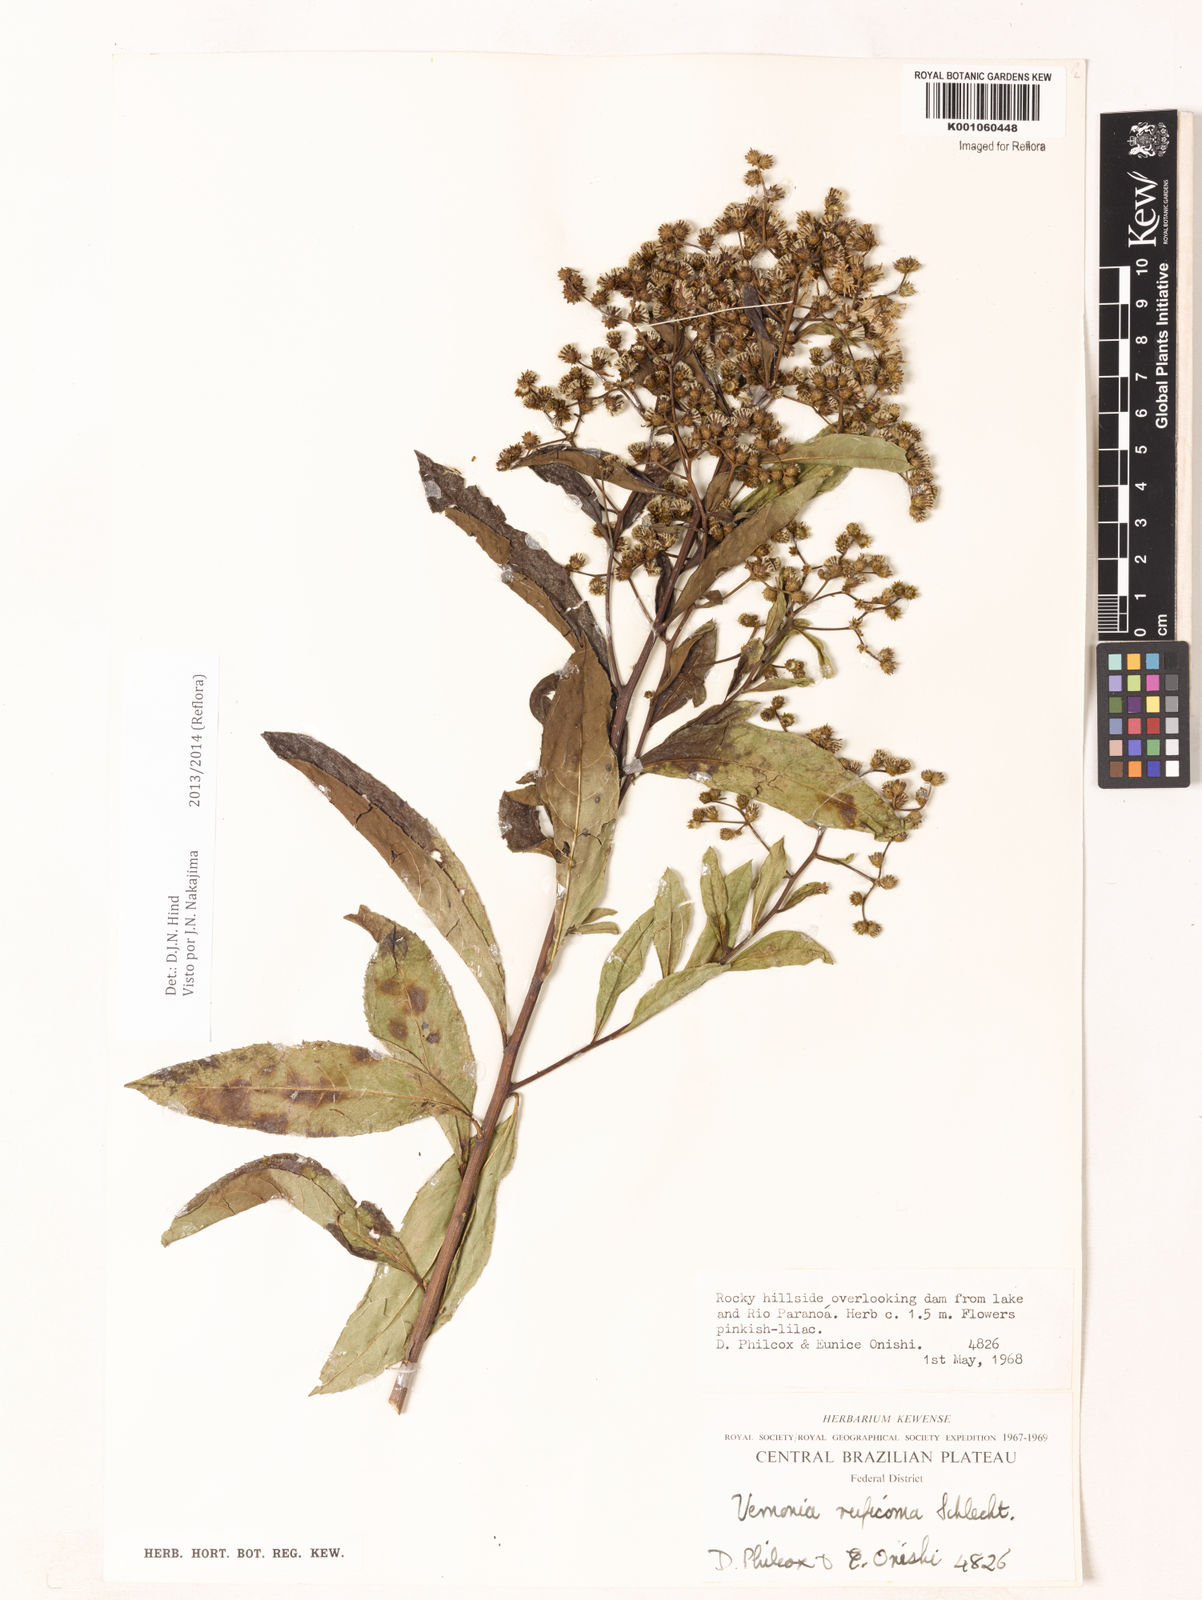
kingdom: Plantae
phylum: Tracheophyta
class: Magnoliopsida
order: Asterales
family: Asteraceae
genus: Vernonia
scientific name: Vernonia
